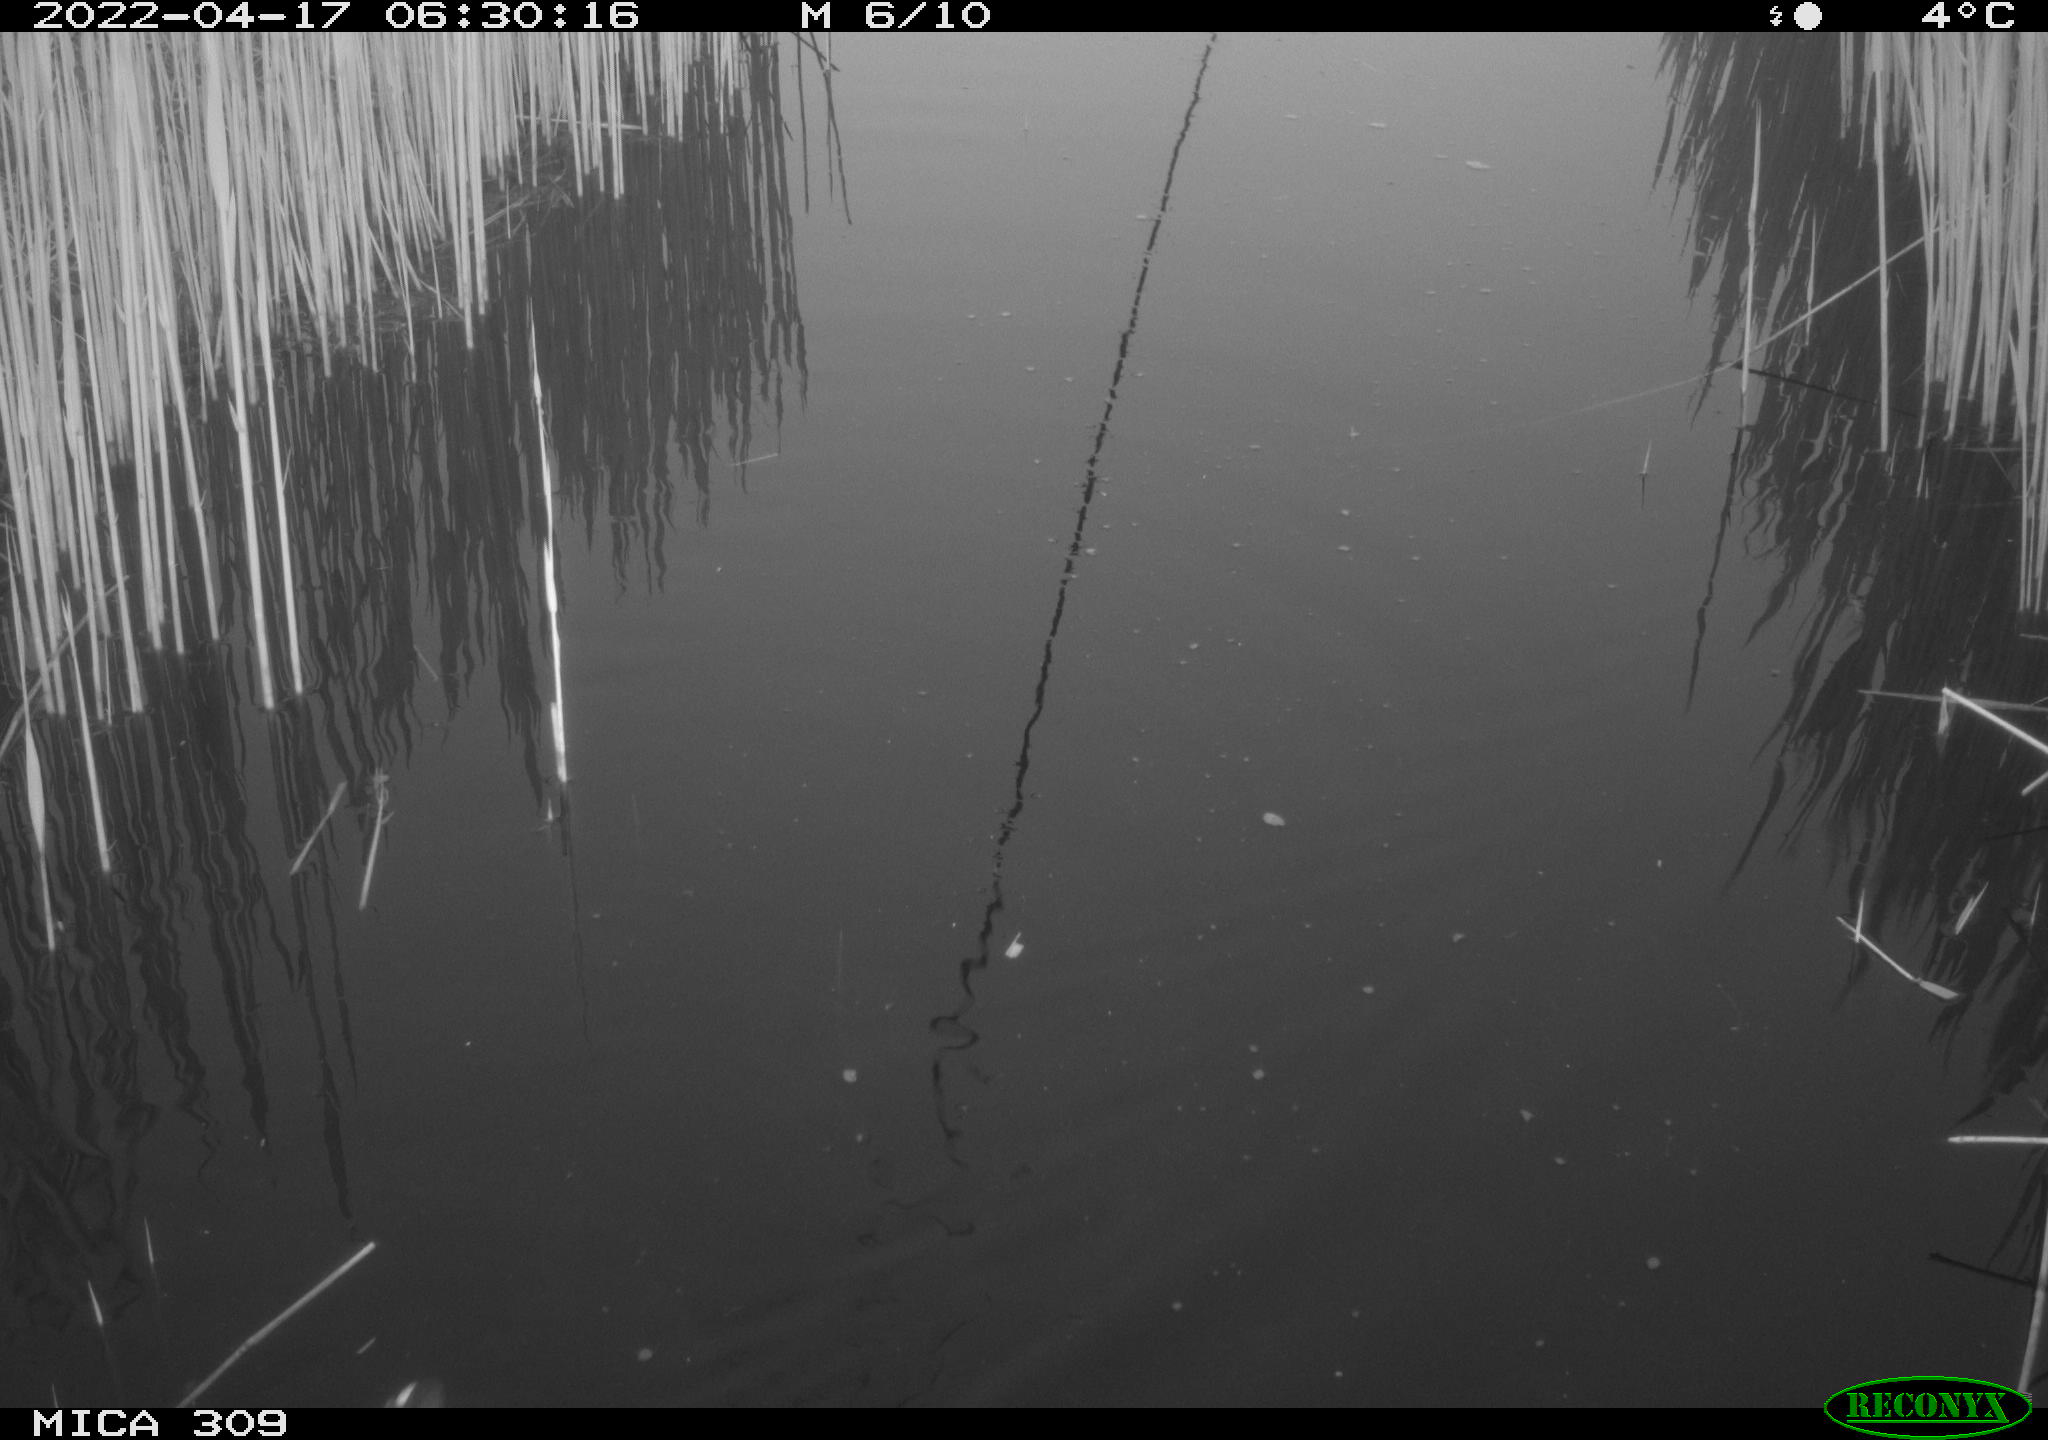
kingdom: Animalia
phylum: Chordata
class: Aves
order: Gruiformes
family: Rallidae
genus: Gallinula
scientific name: Gallinula chloropus
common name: Common moorhen
